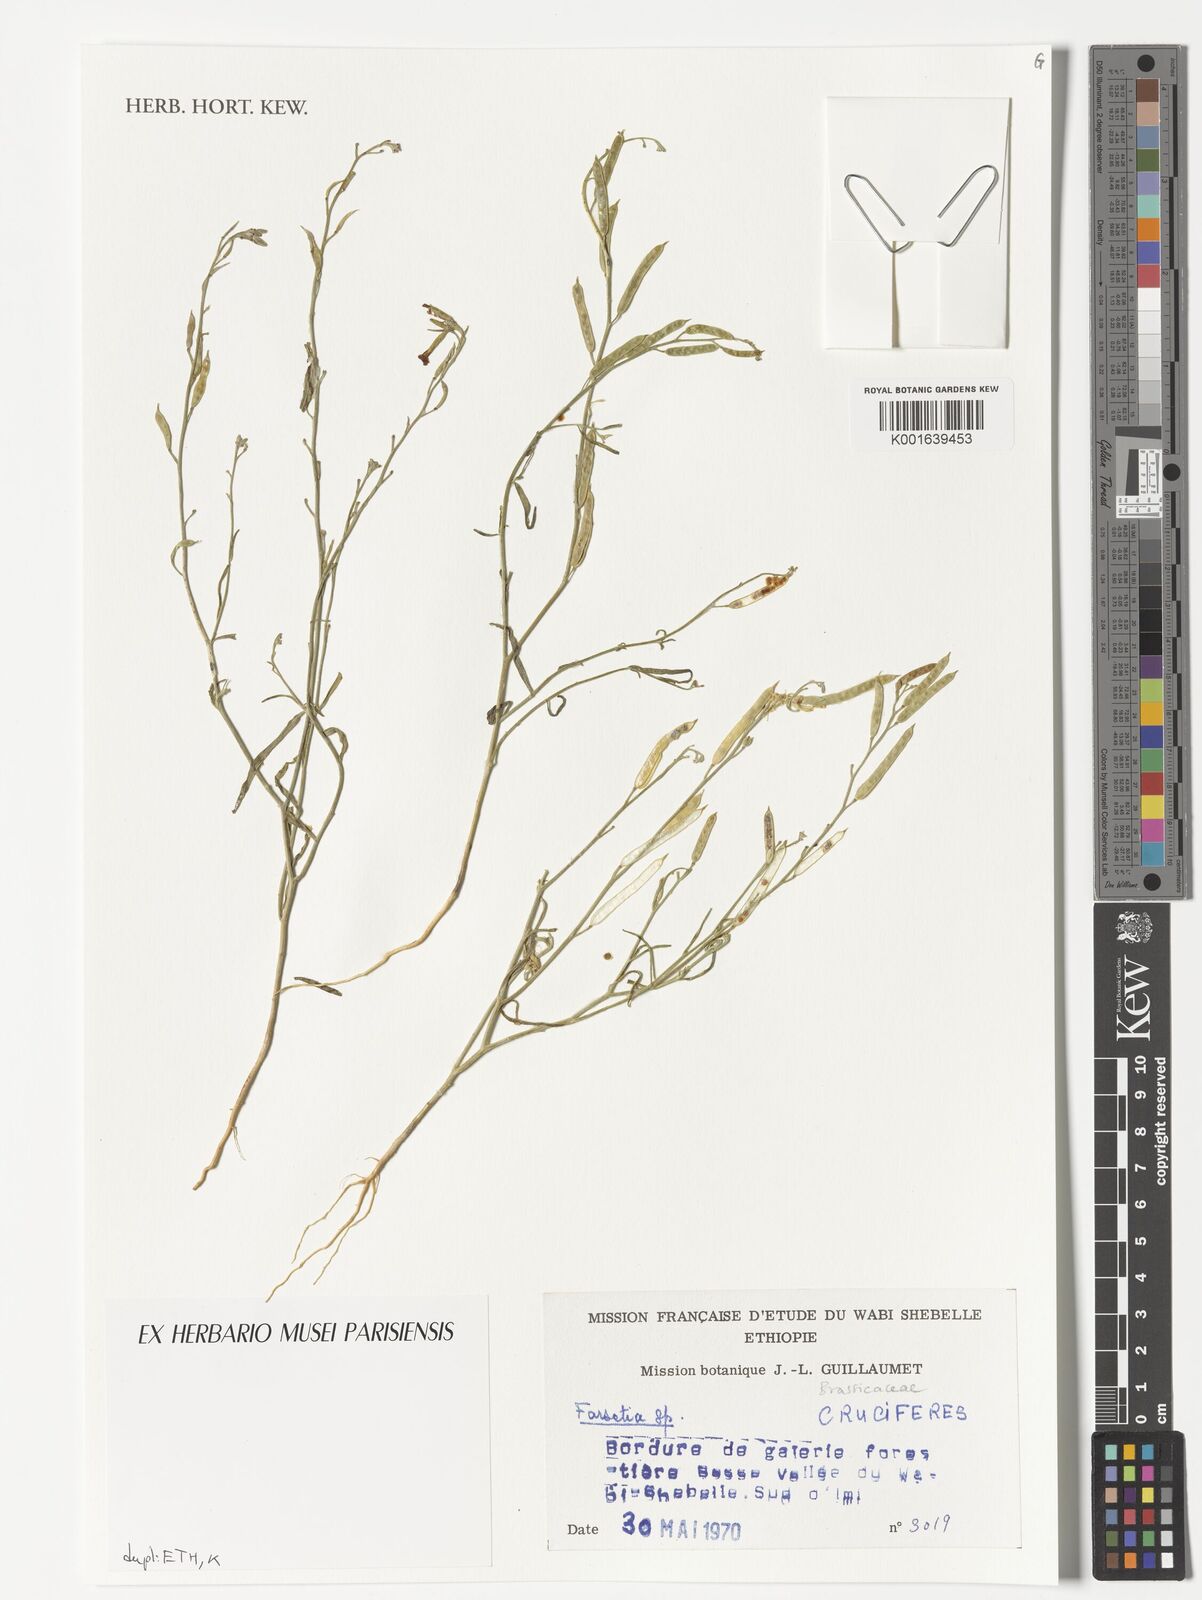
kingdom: Plantae
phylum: Tracheophyta
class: Magnoliopsida
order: Brassicales
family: Brassicaceae
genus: Farsetia
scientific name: Farsetia
